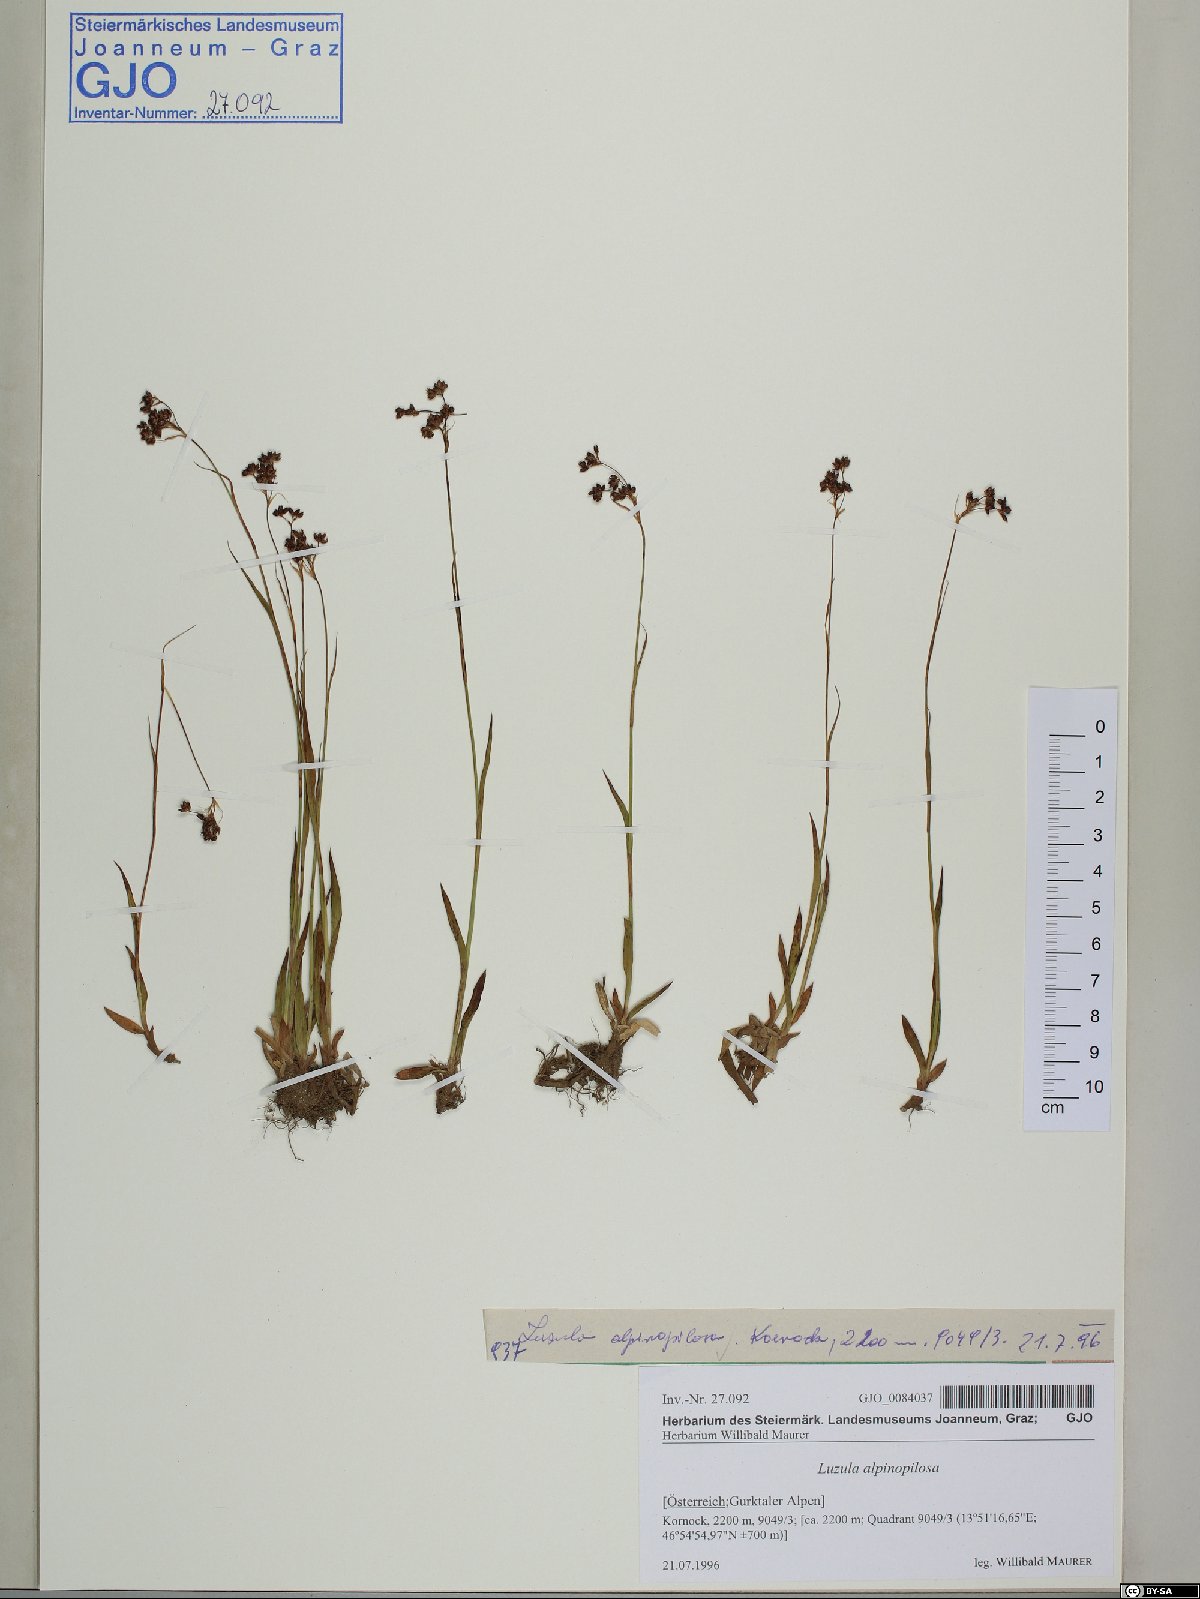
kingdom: Plantae
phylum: Tracheophyta
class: Liliopsida
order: Poales
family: Juncaceae
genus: Luzula
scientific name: Luzula alpinopilosa
